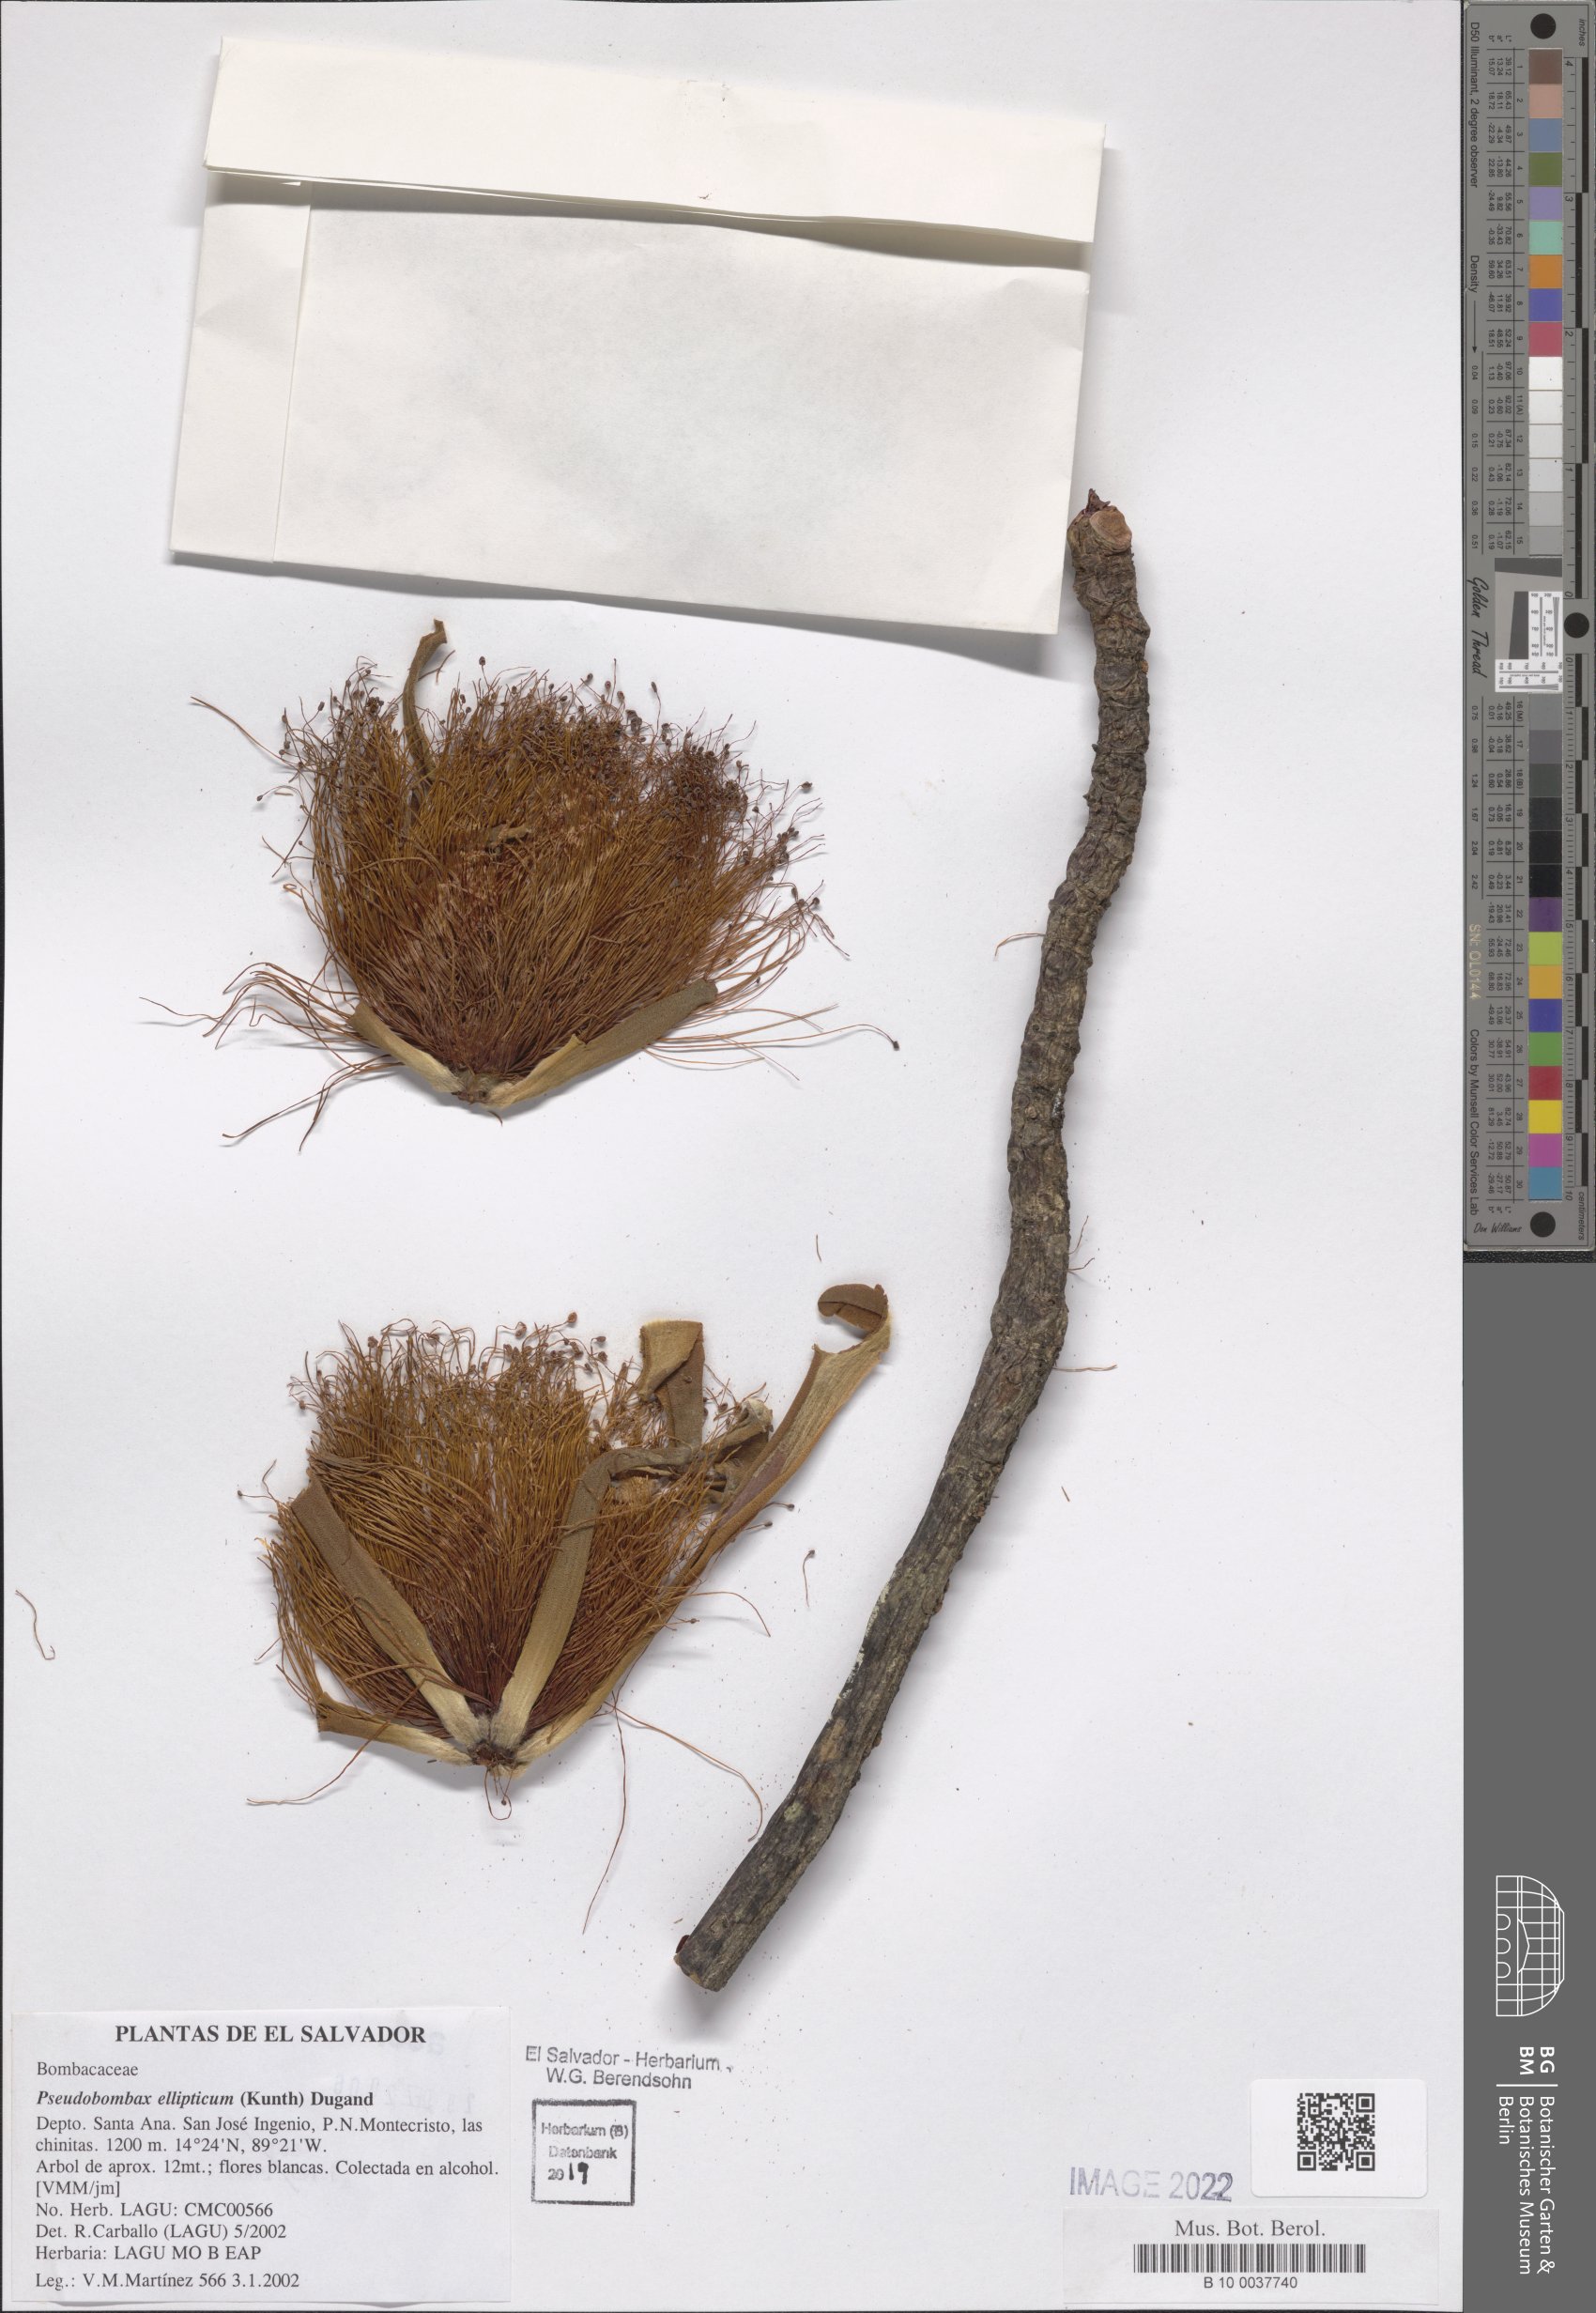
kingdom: Plantae
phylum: Tracheophyta
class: Magnoliopsida
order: Malvales
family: Malvaceae
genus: Pseudobombax
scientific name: Pseudobombax ellipticum
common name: Shaving-brush-tree
